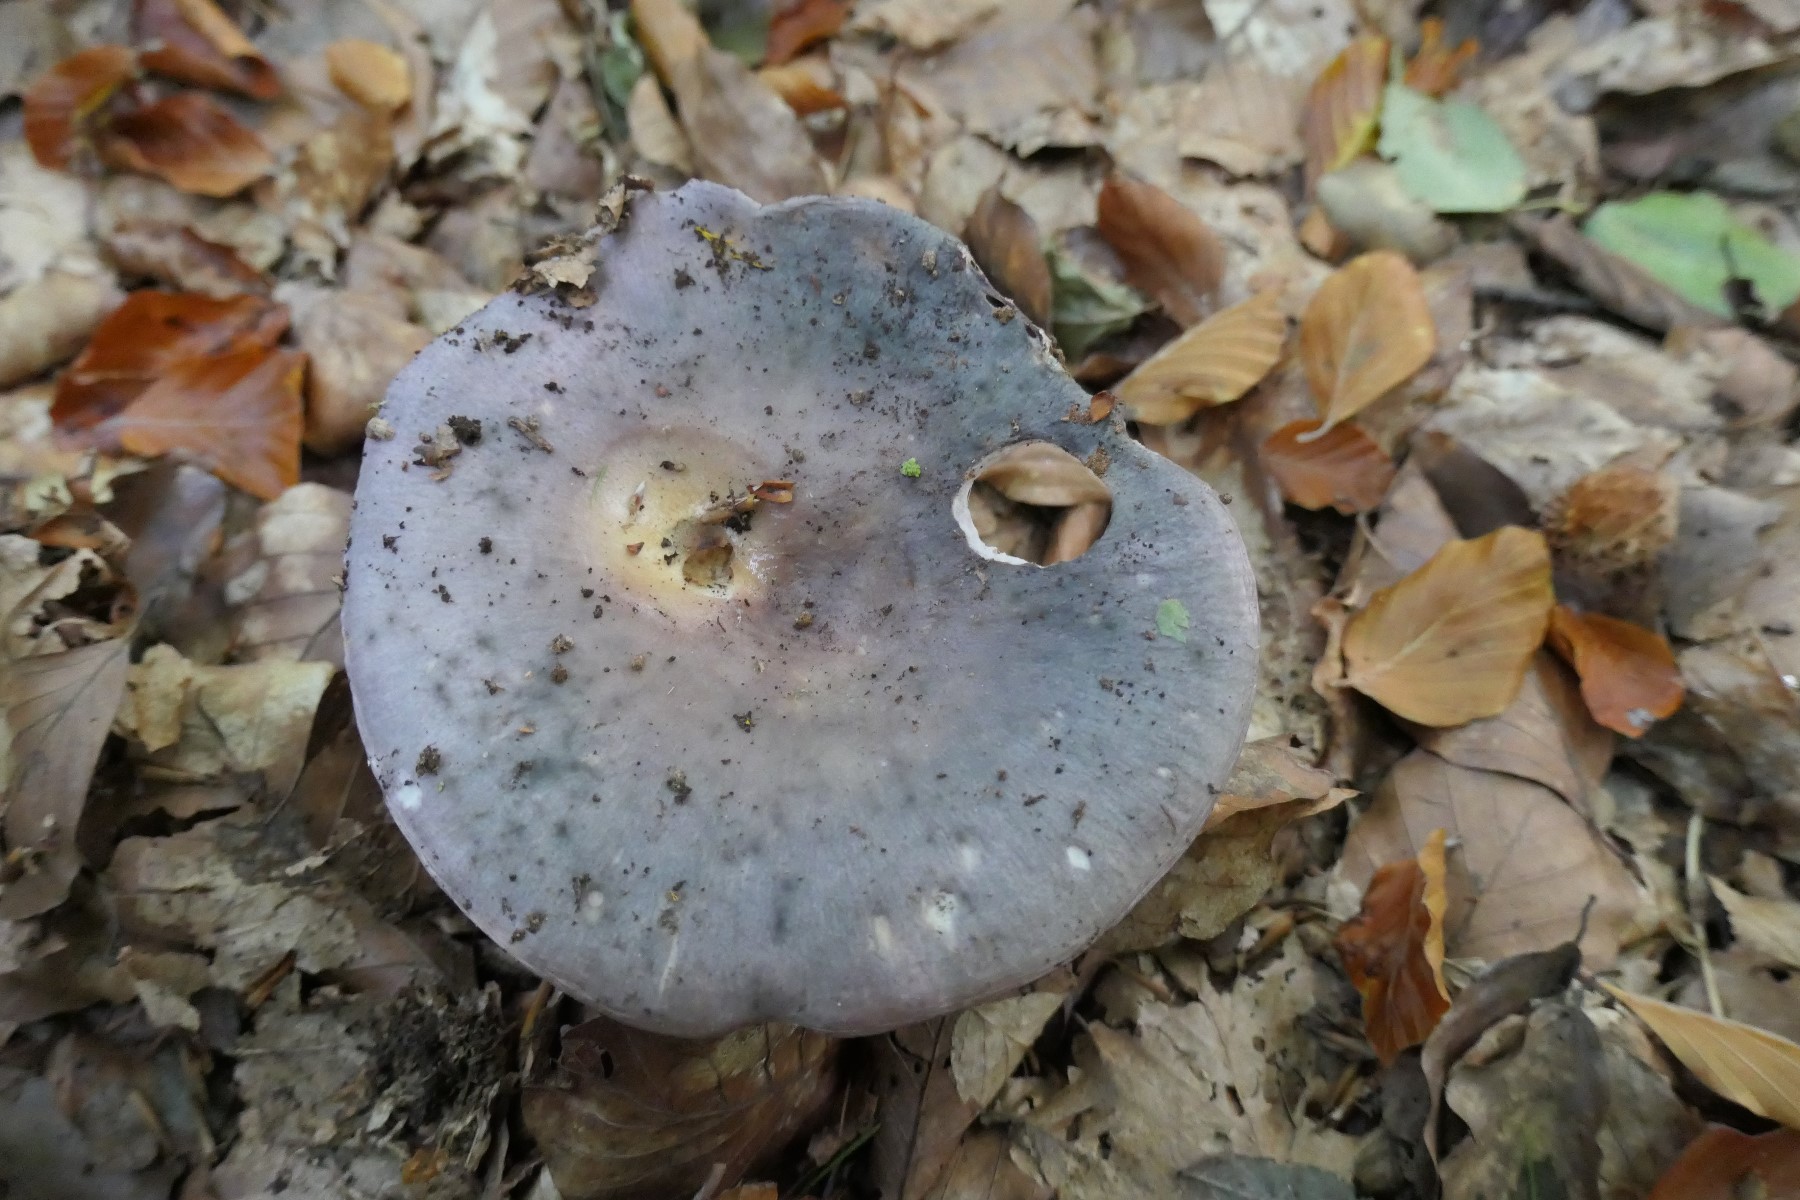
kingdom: Fungi
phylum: Basidiomycota
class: Agaricomycetes
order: Russulales
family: Russulaceae
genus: Russula
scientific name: Russula cyanoxantha
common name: broget skørhat
